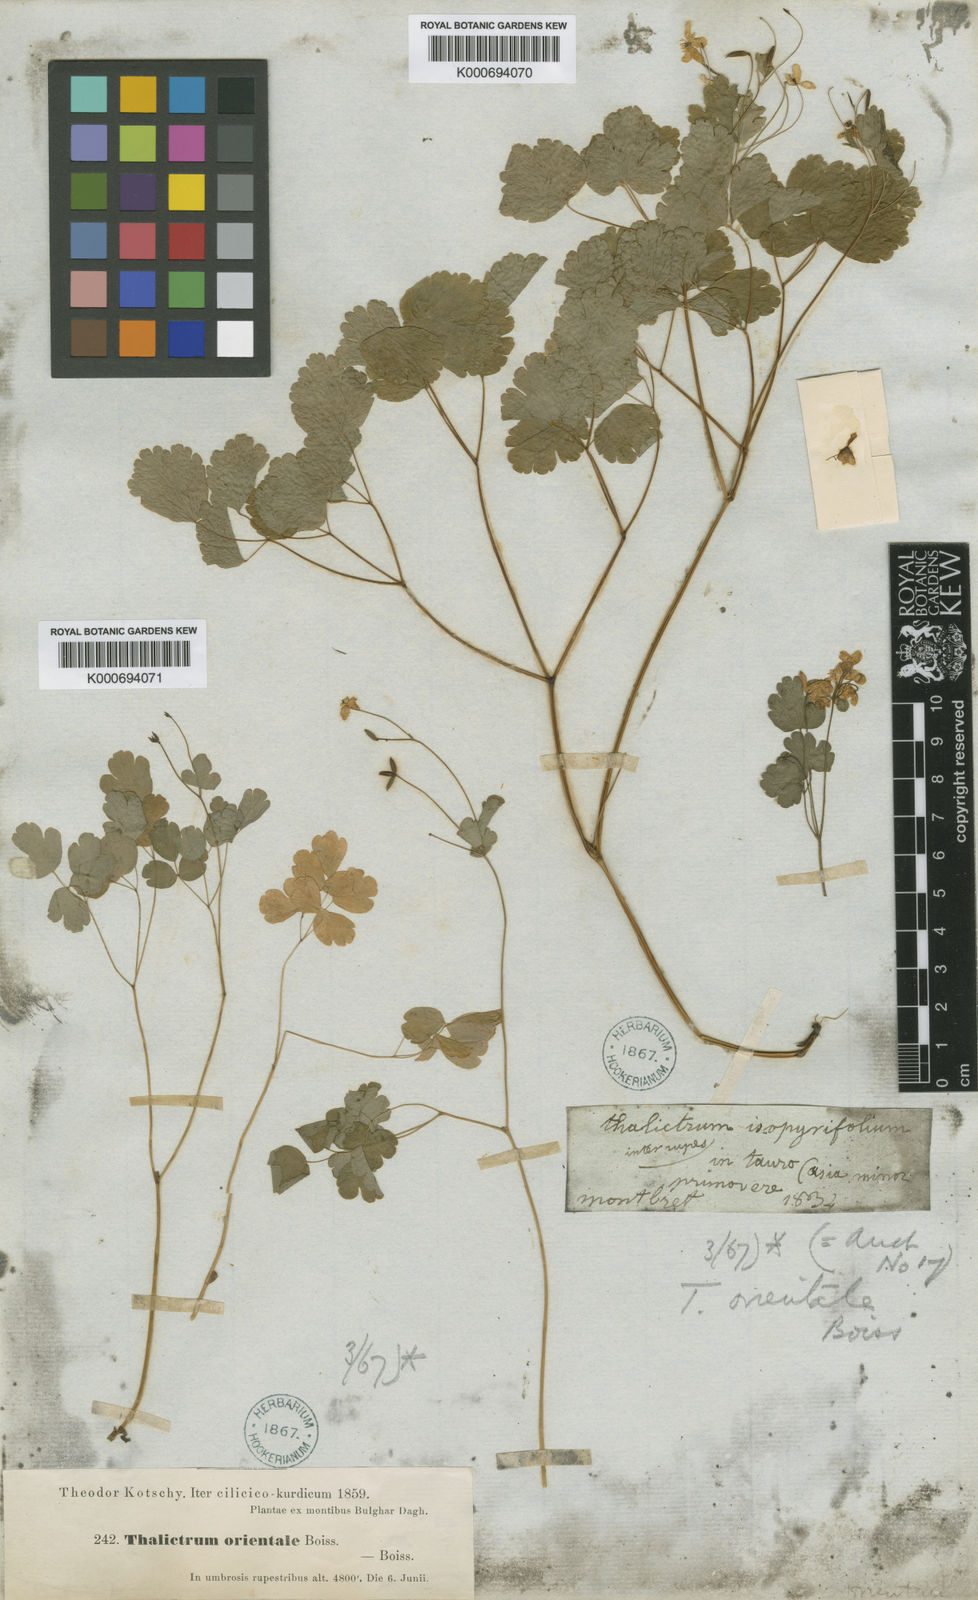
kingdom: Plantae
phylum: Tracheophyta
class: Magnoliopsida
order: Ranunculales
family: Ranunculaceae
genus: Thalictrum
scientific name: Thalictrum orientale
